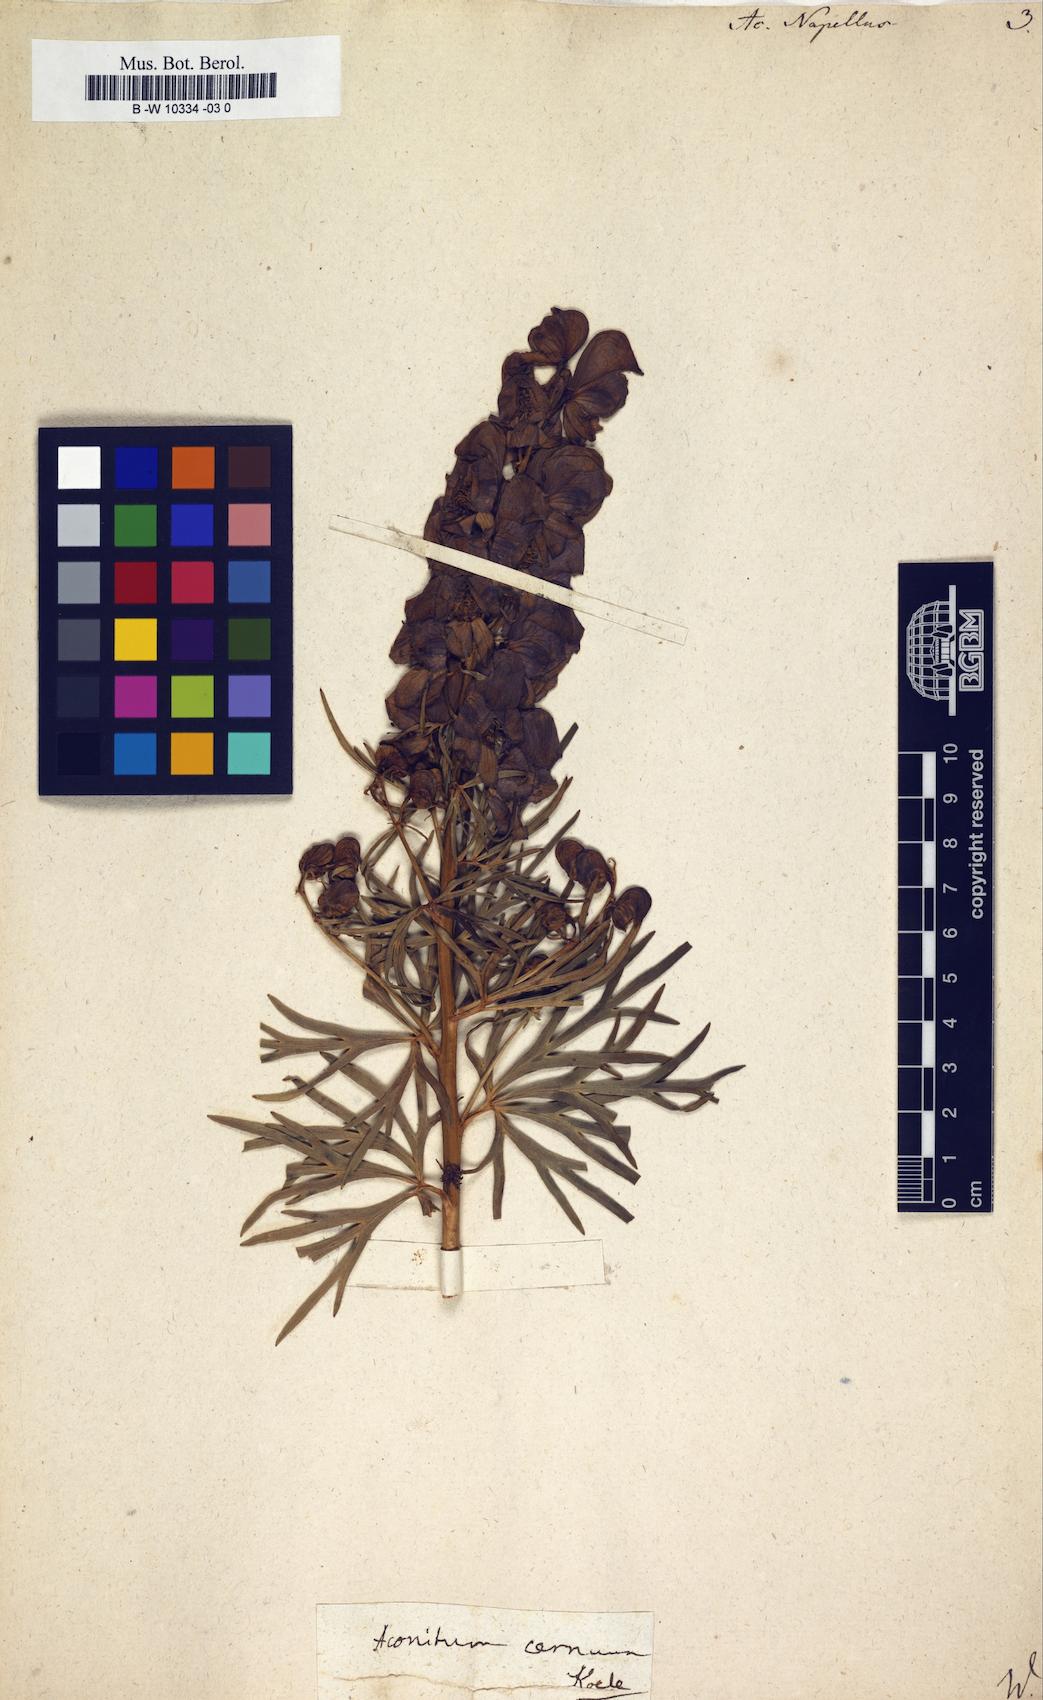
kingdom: Plantae
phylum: Tracheophyta
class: Magnoliopsida
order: Ranunculales
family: Ranunculaceae
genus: Aconitum
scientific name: Aconitum napellus
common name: Garden monkshood
